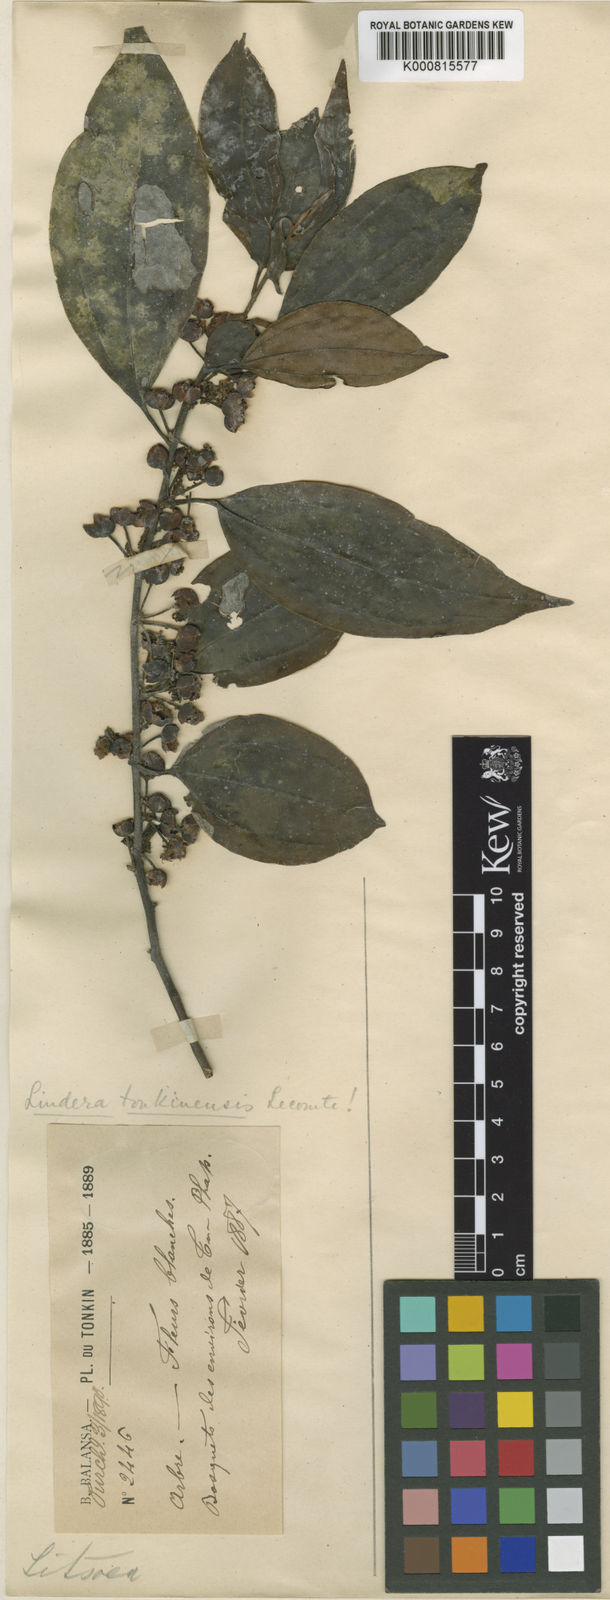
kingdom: Plantae
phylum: Tracheophyta
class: Magnoliopsida
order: Laurales
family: Lauraceae
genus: Lindera
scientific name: Lindera tonkinensis
